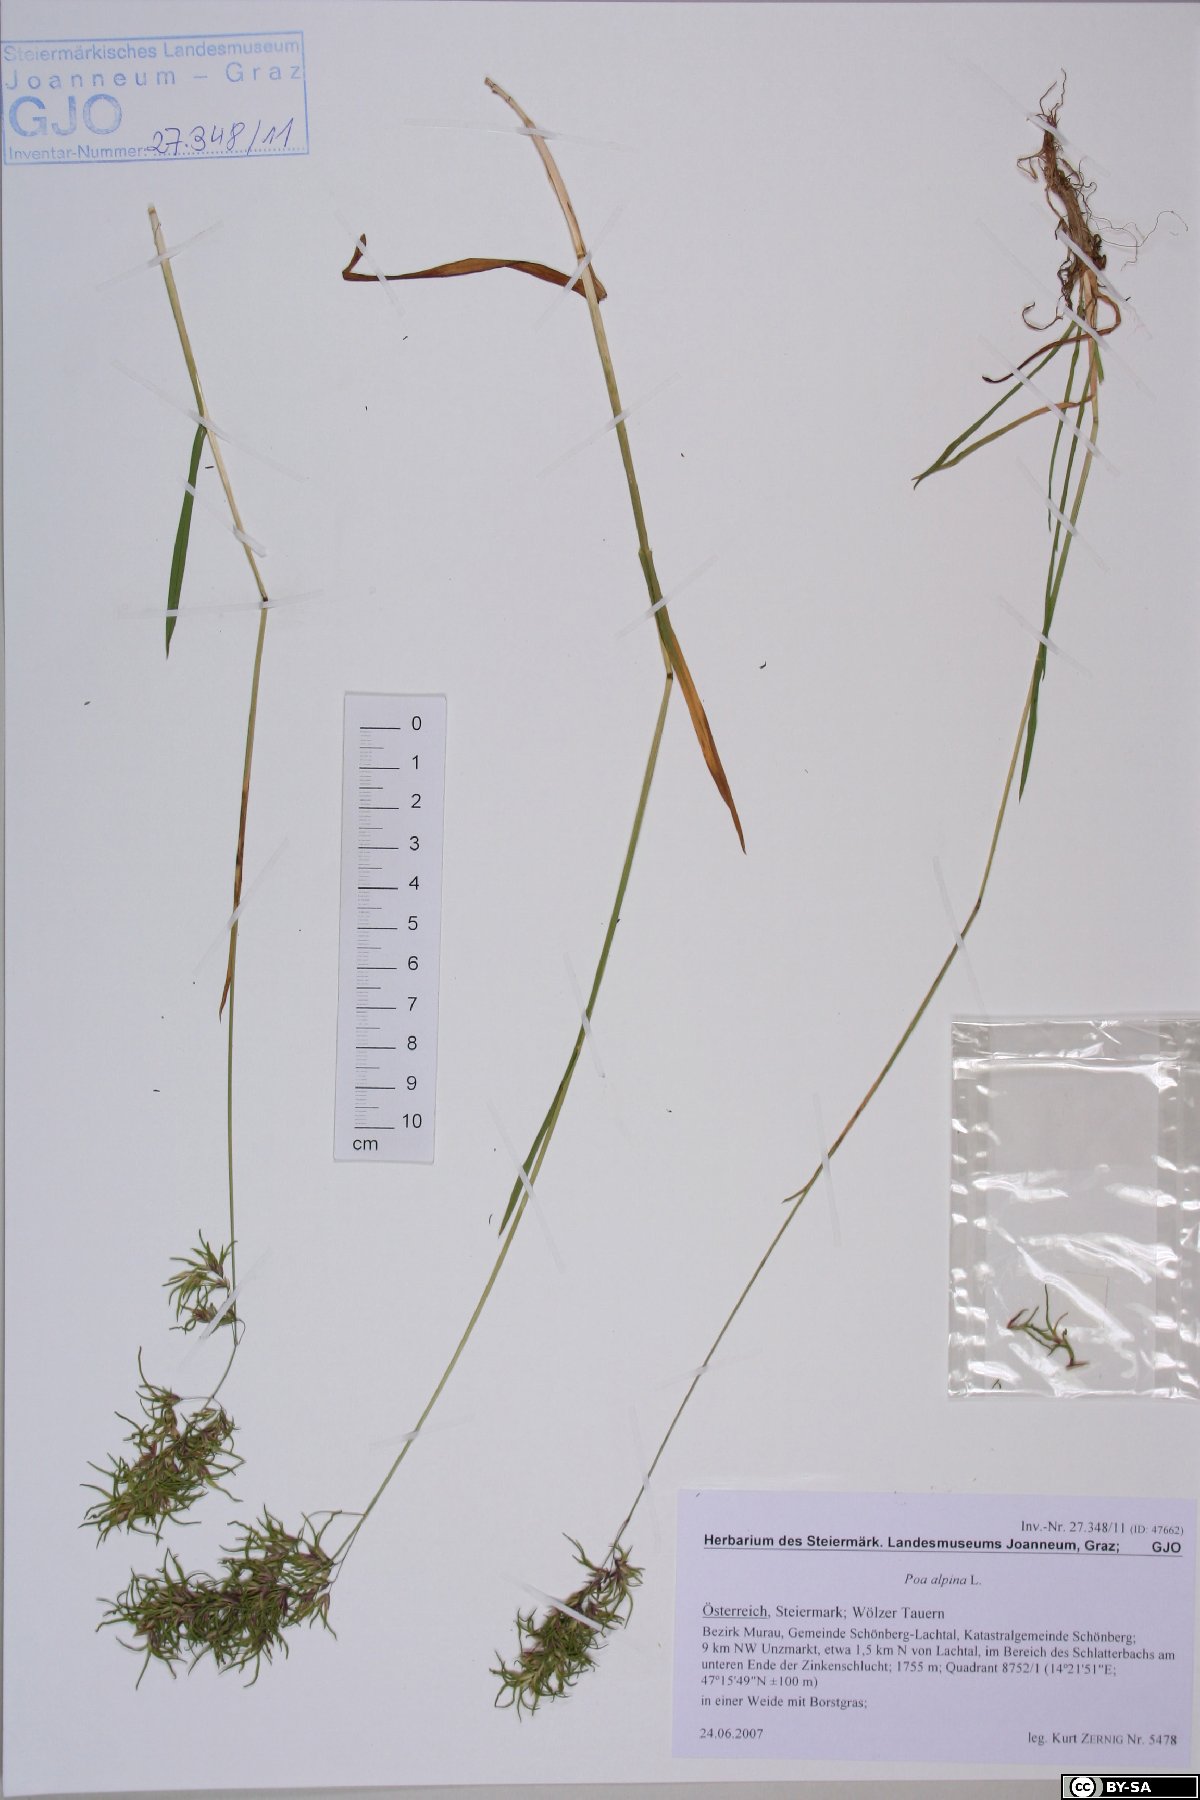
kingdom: Plantae
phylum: Tracheophyta
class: Liliopsida
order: Poales
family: Poaceae
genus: Poa
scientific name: Poa alpina
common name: Alpine bluegrass
